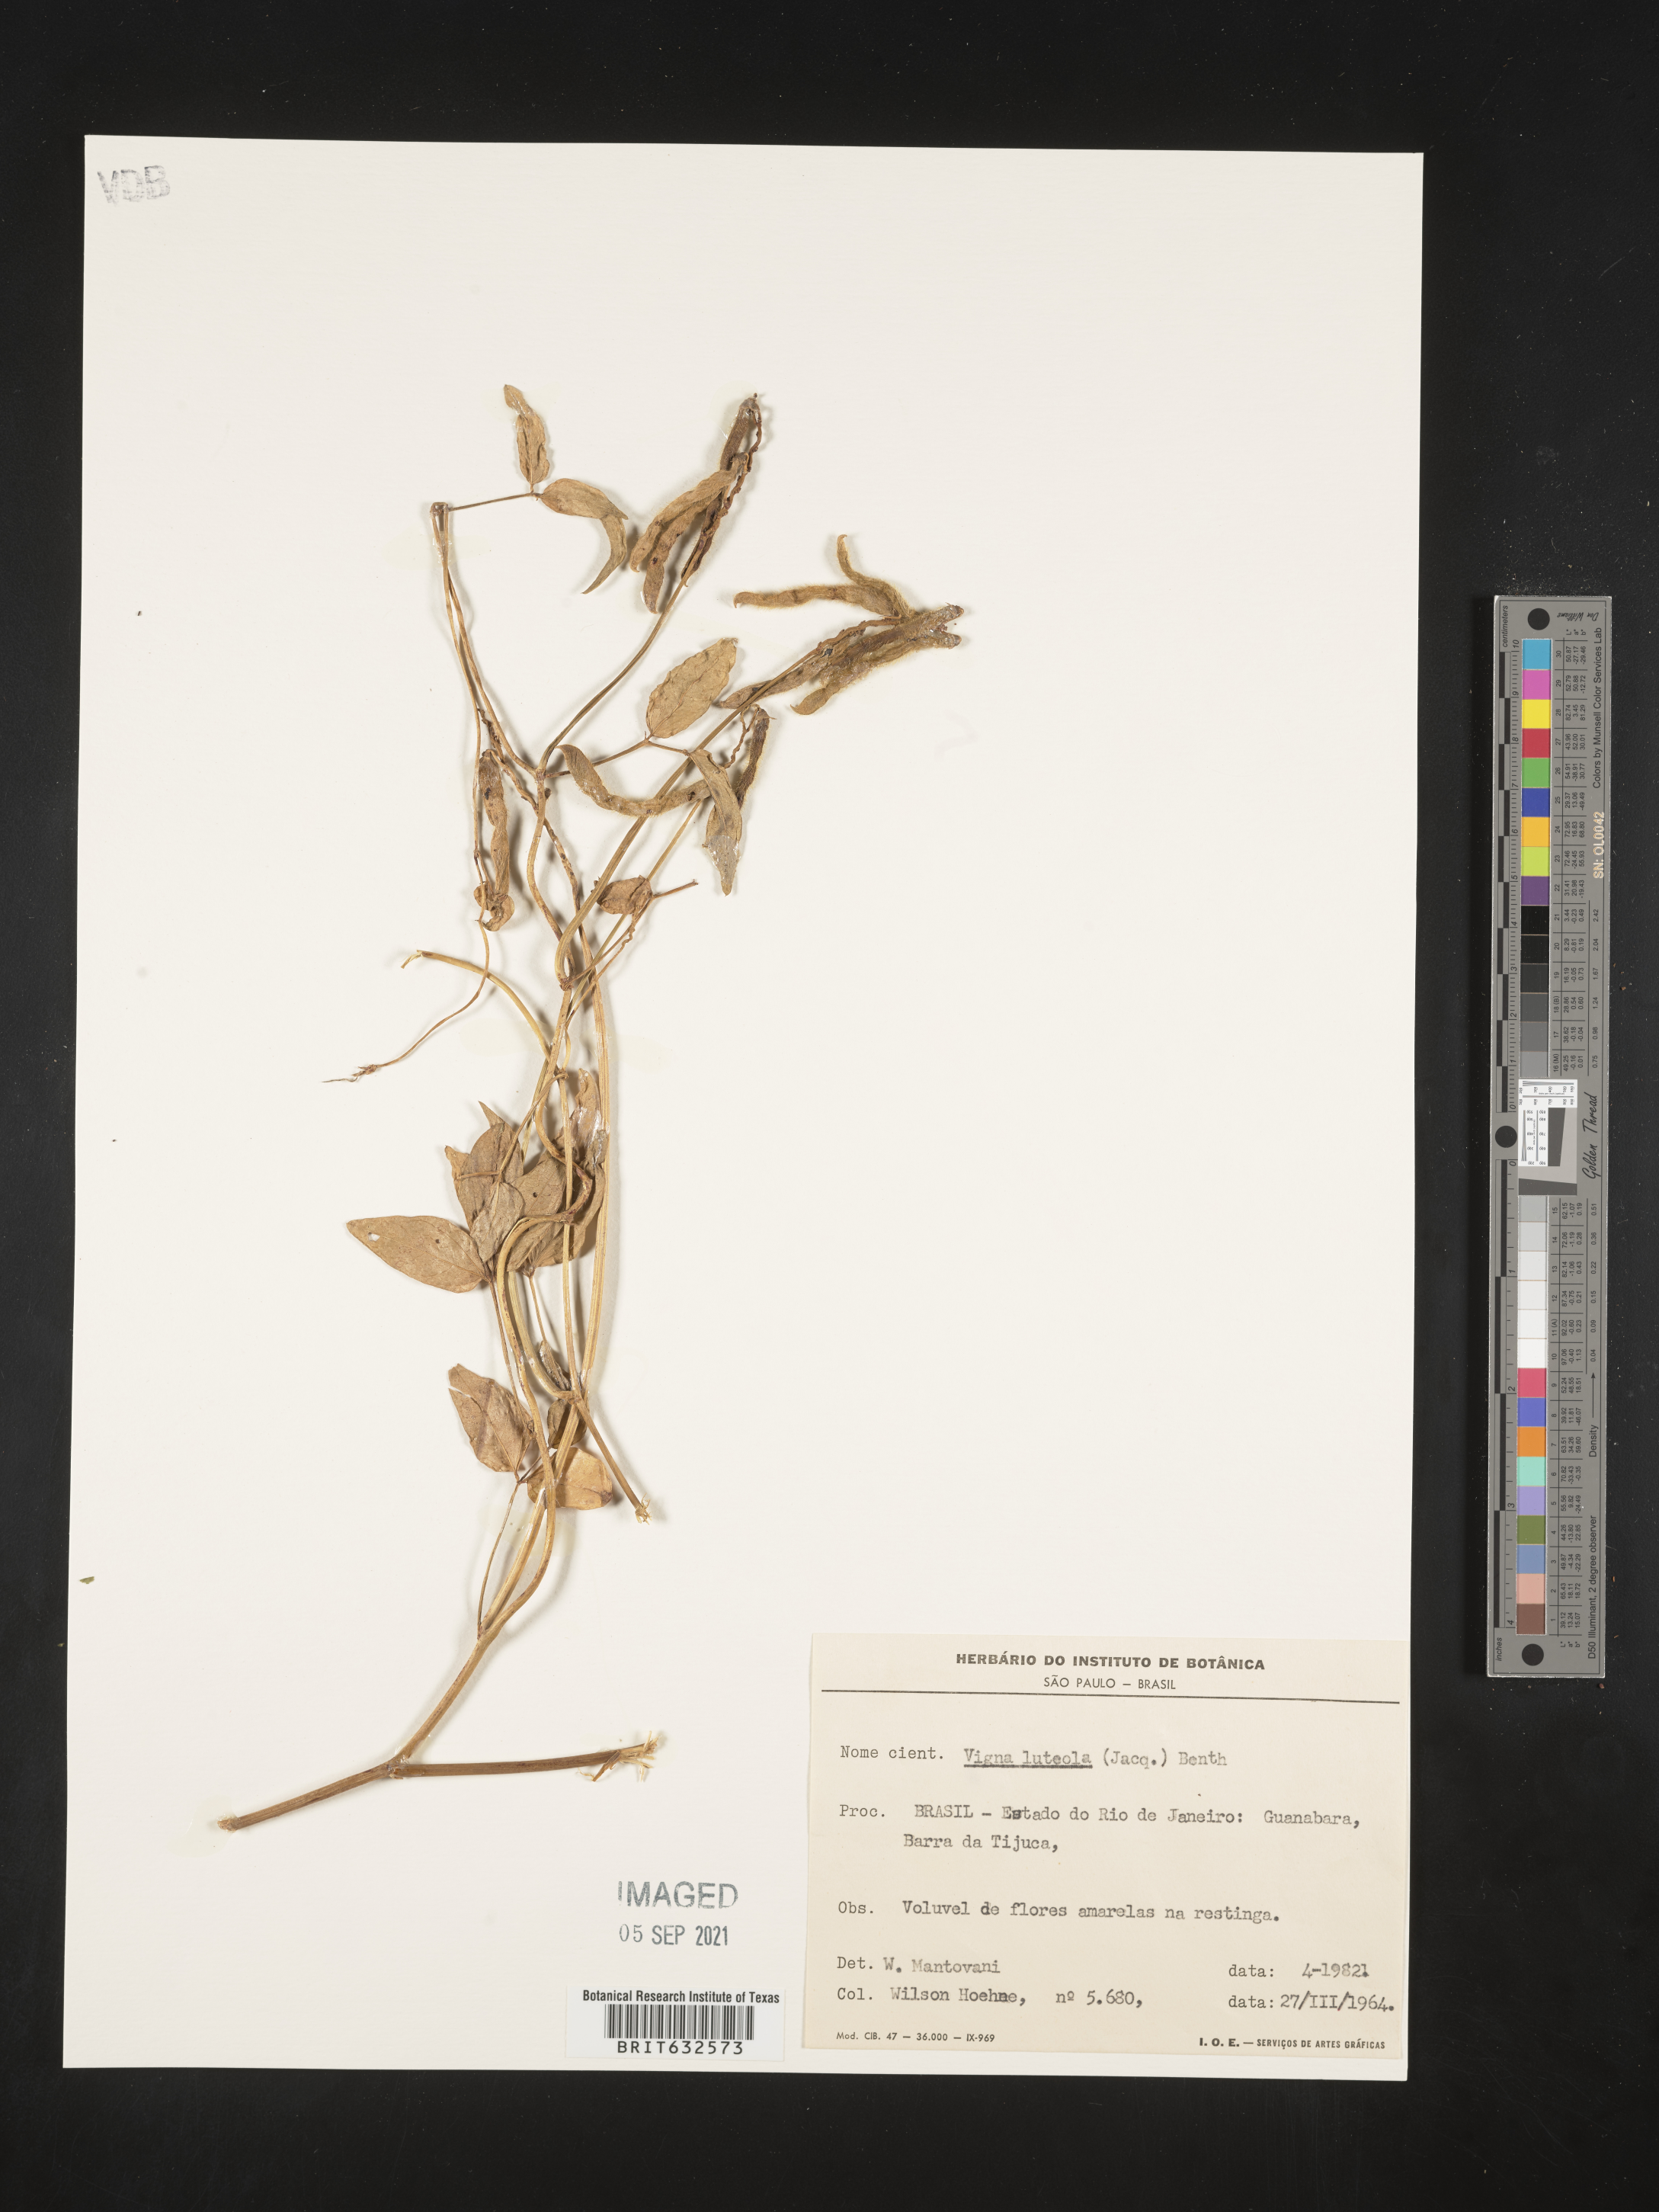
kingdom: Plantae
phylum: Tracheophyta
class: Magnoliopsida
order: Fabales
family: Fabaceae
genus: Vigna
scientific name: Vigna
